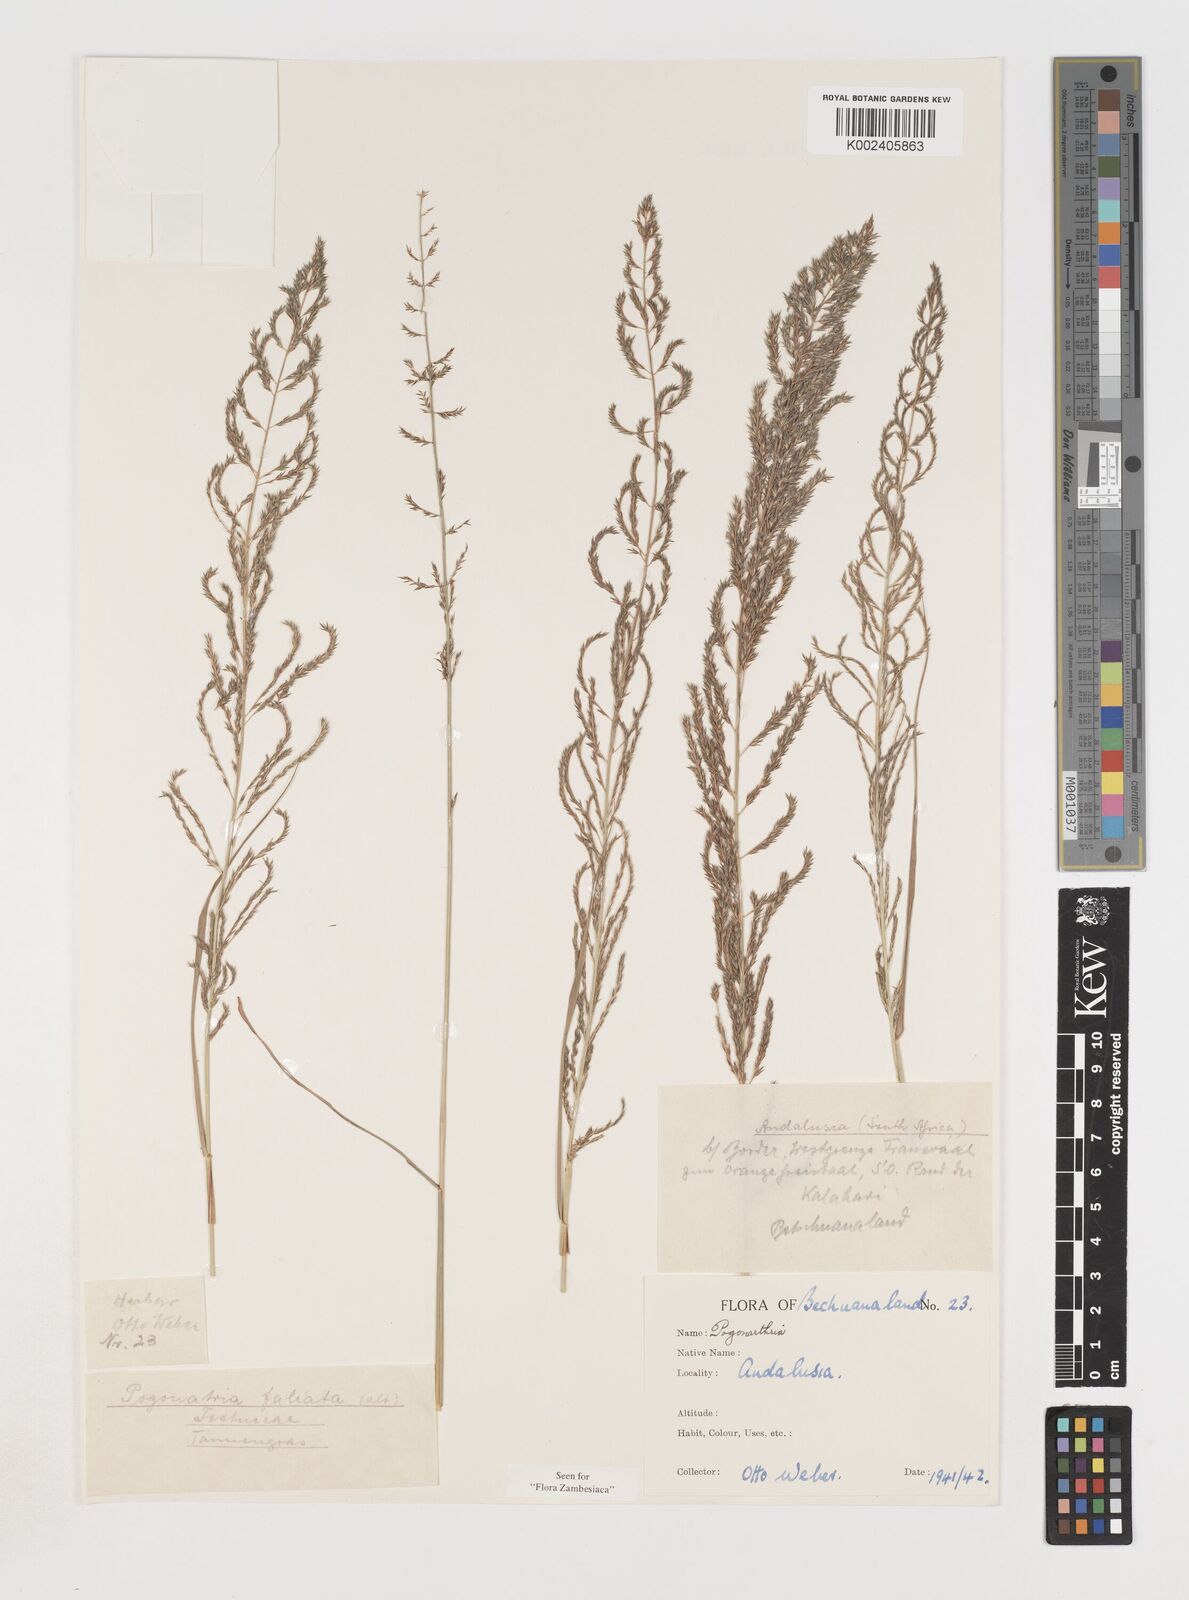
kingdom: Plantae
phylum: Tracheophyta
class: Liliopsida
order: Poales
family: Poaceae
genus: Pogonarthria
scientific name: Pogonarthria fleckii
